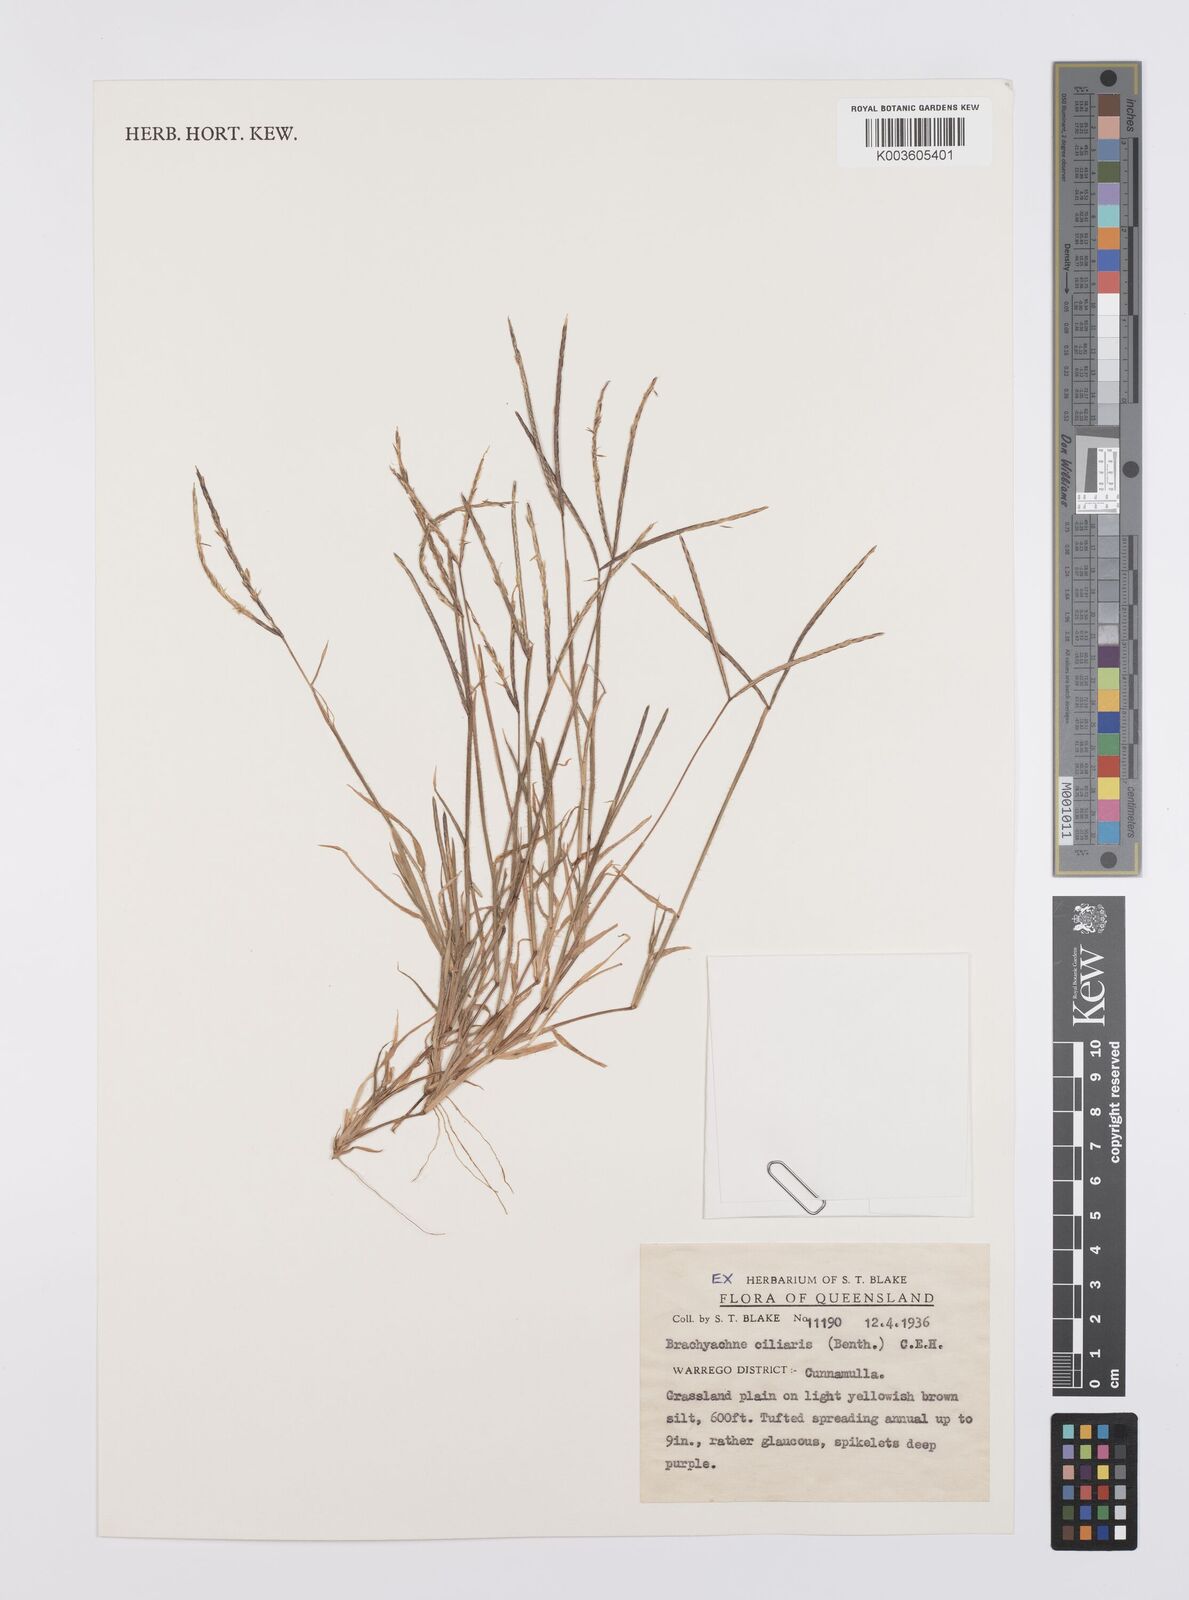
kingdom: Plantae
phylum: Tracheophyta
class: Liliopsida
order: Poales
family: Poaceae
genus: Cynodon
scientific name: Cynodon simonii
